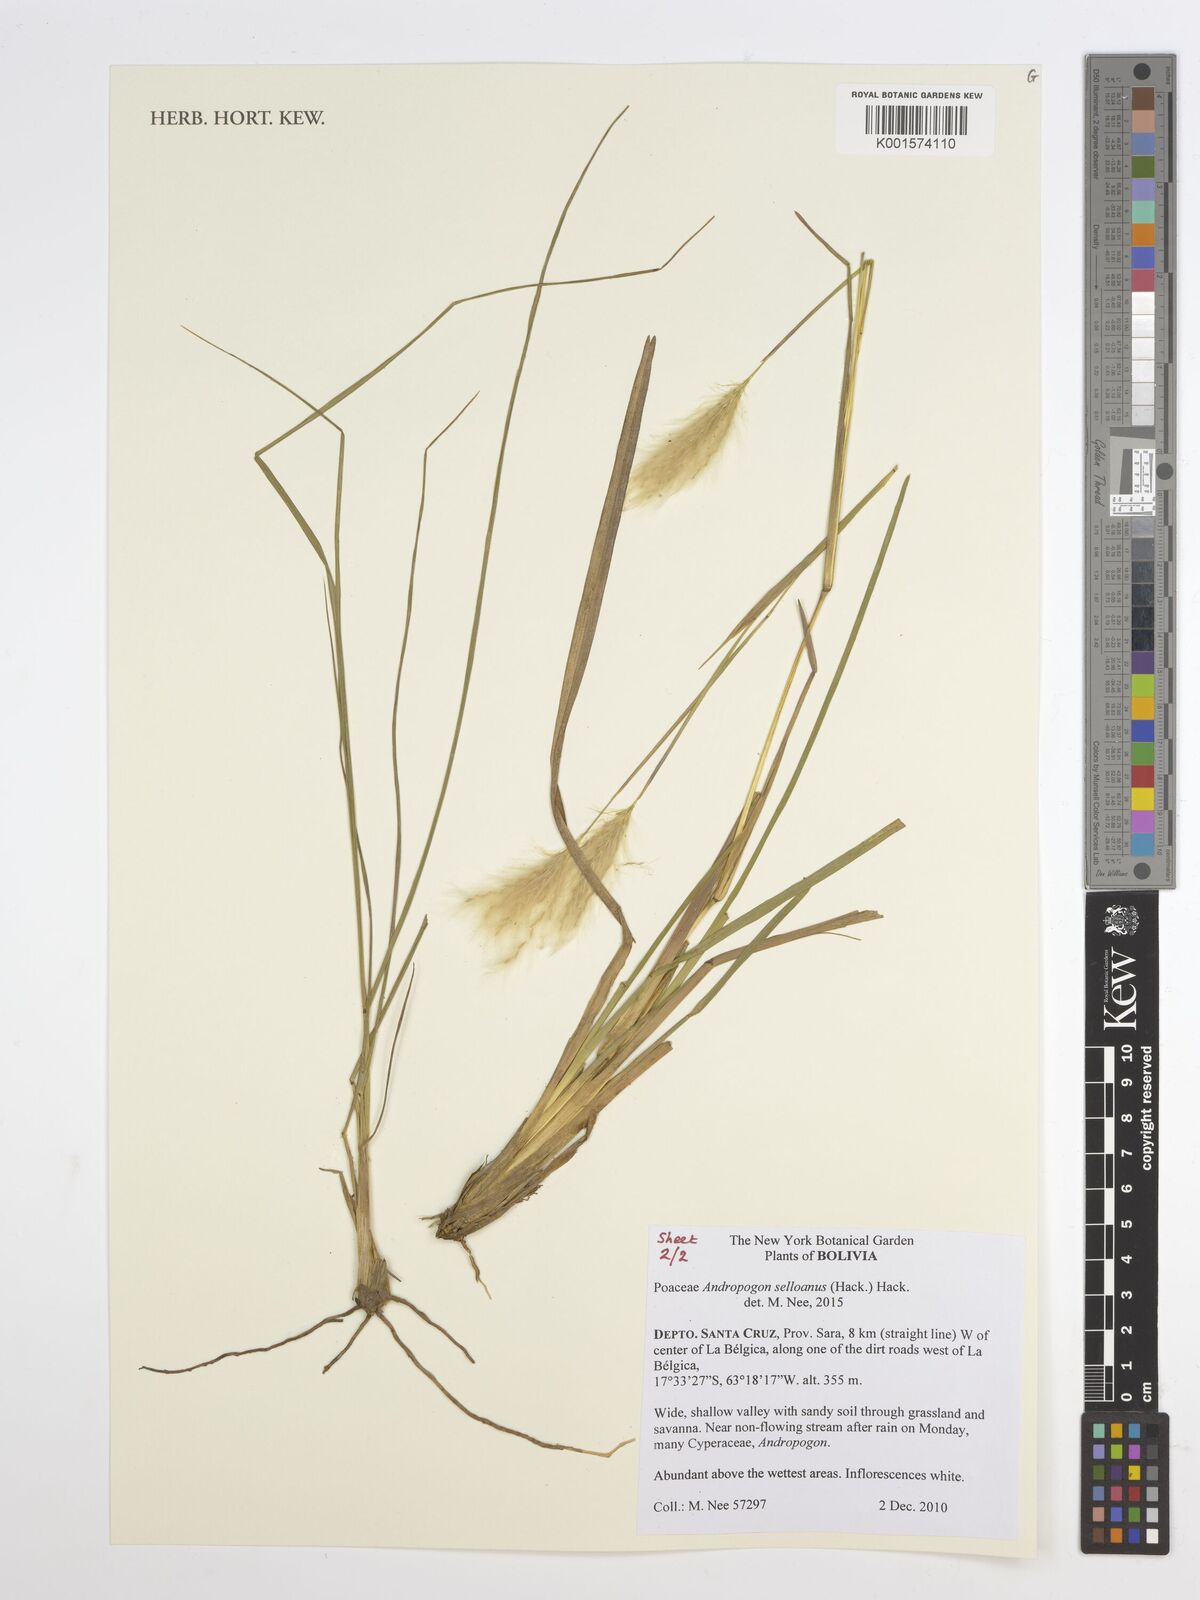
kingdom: Plantae
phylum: Tracheophyta
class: Liliopsida
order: Poales
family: Poaceae
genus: Andropogon
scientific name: Andropogon selloanus
